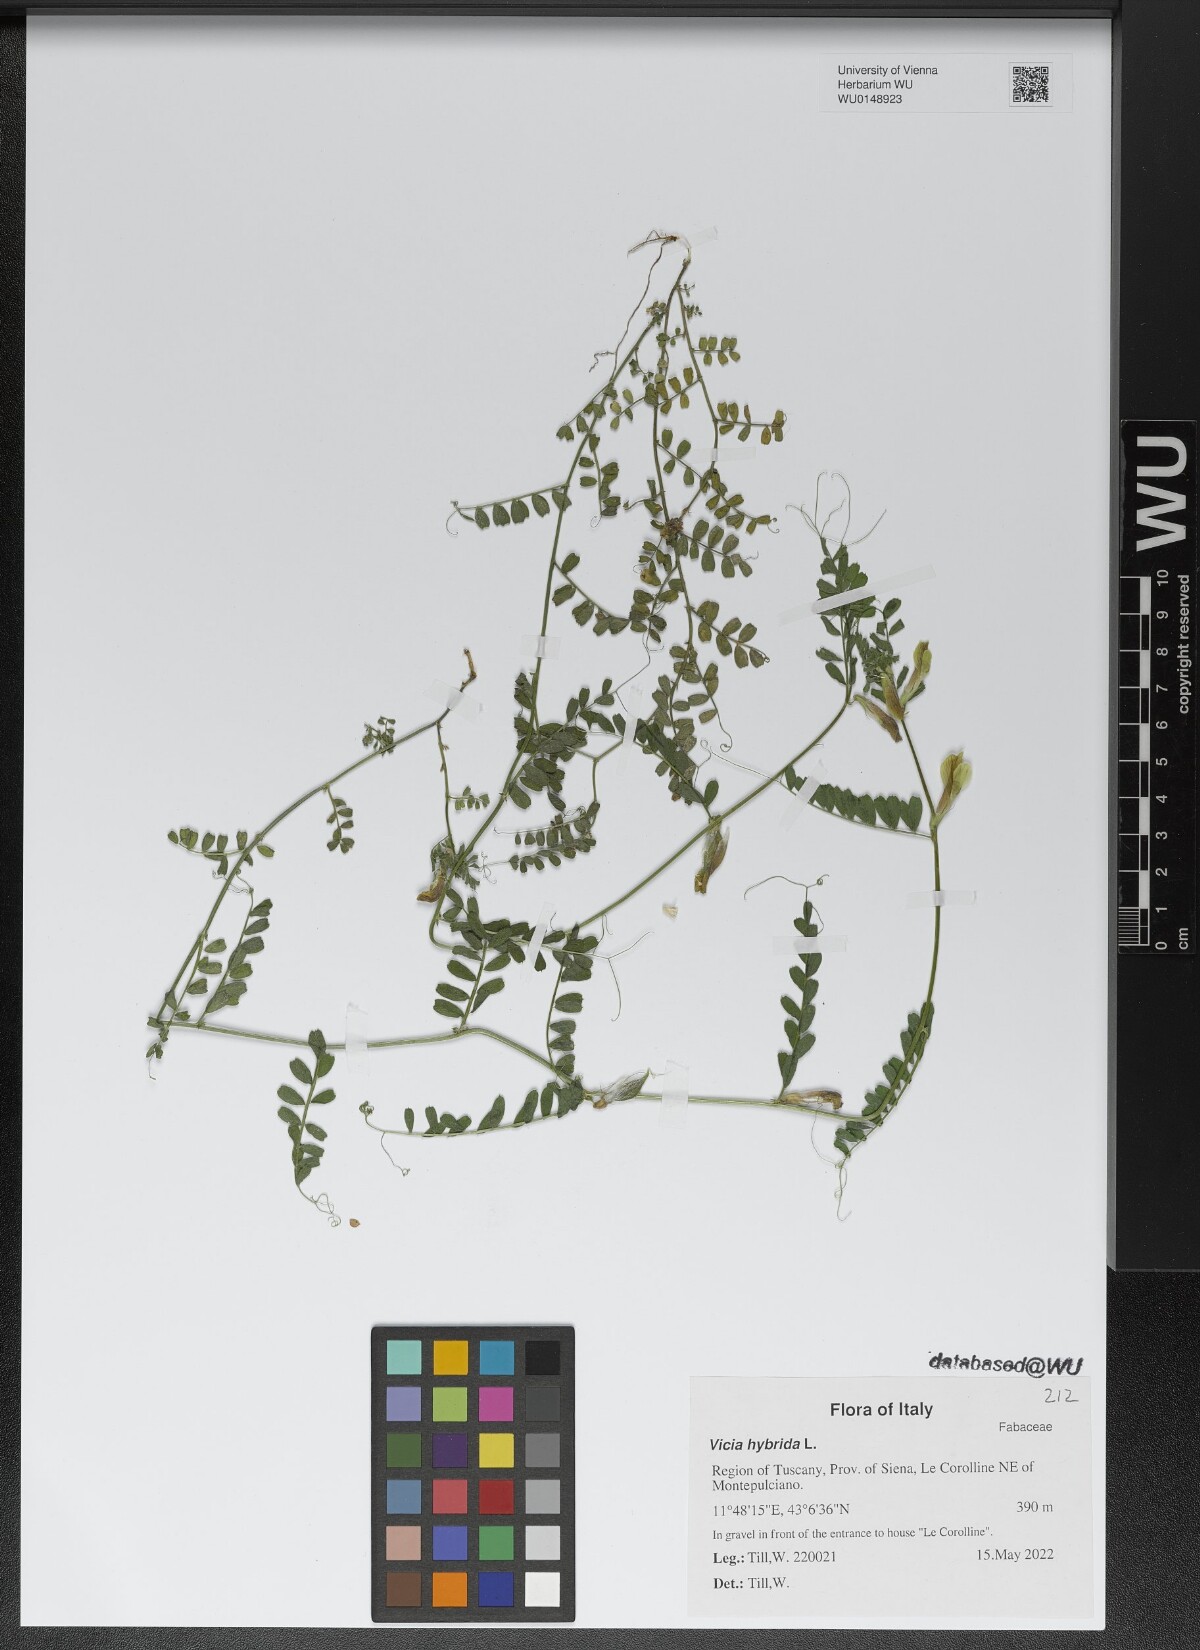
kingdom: Plantae
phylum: Tracheophyta
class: Magnoliopsida
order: Fabales
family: Fabaceae
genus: Vicia
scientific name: Vicia hybrida
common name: Hairy yellow vetch
